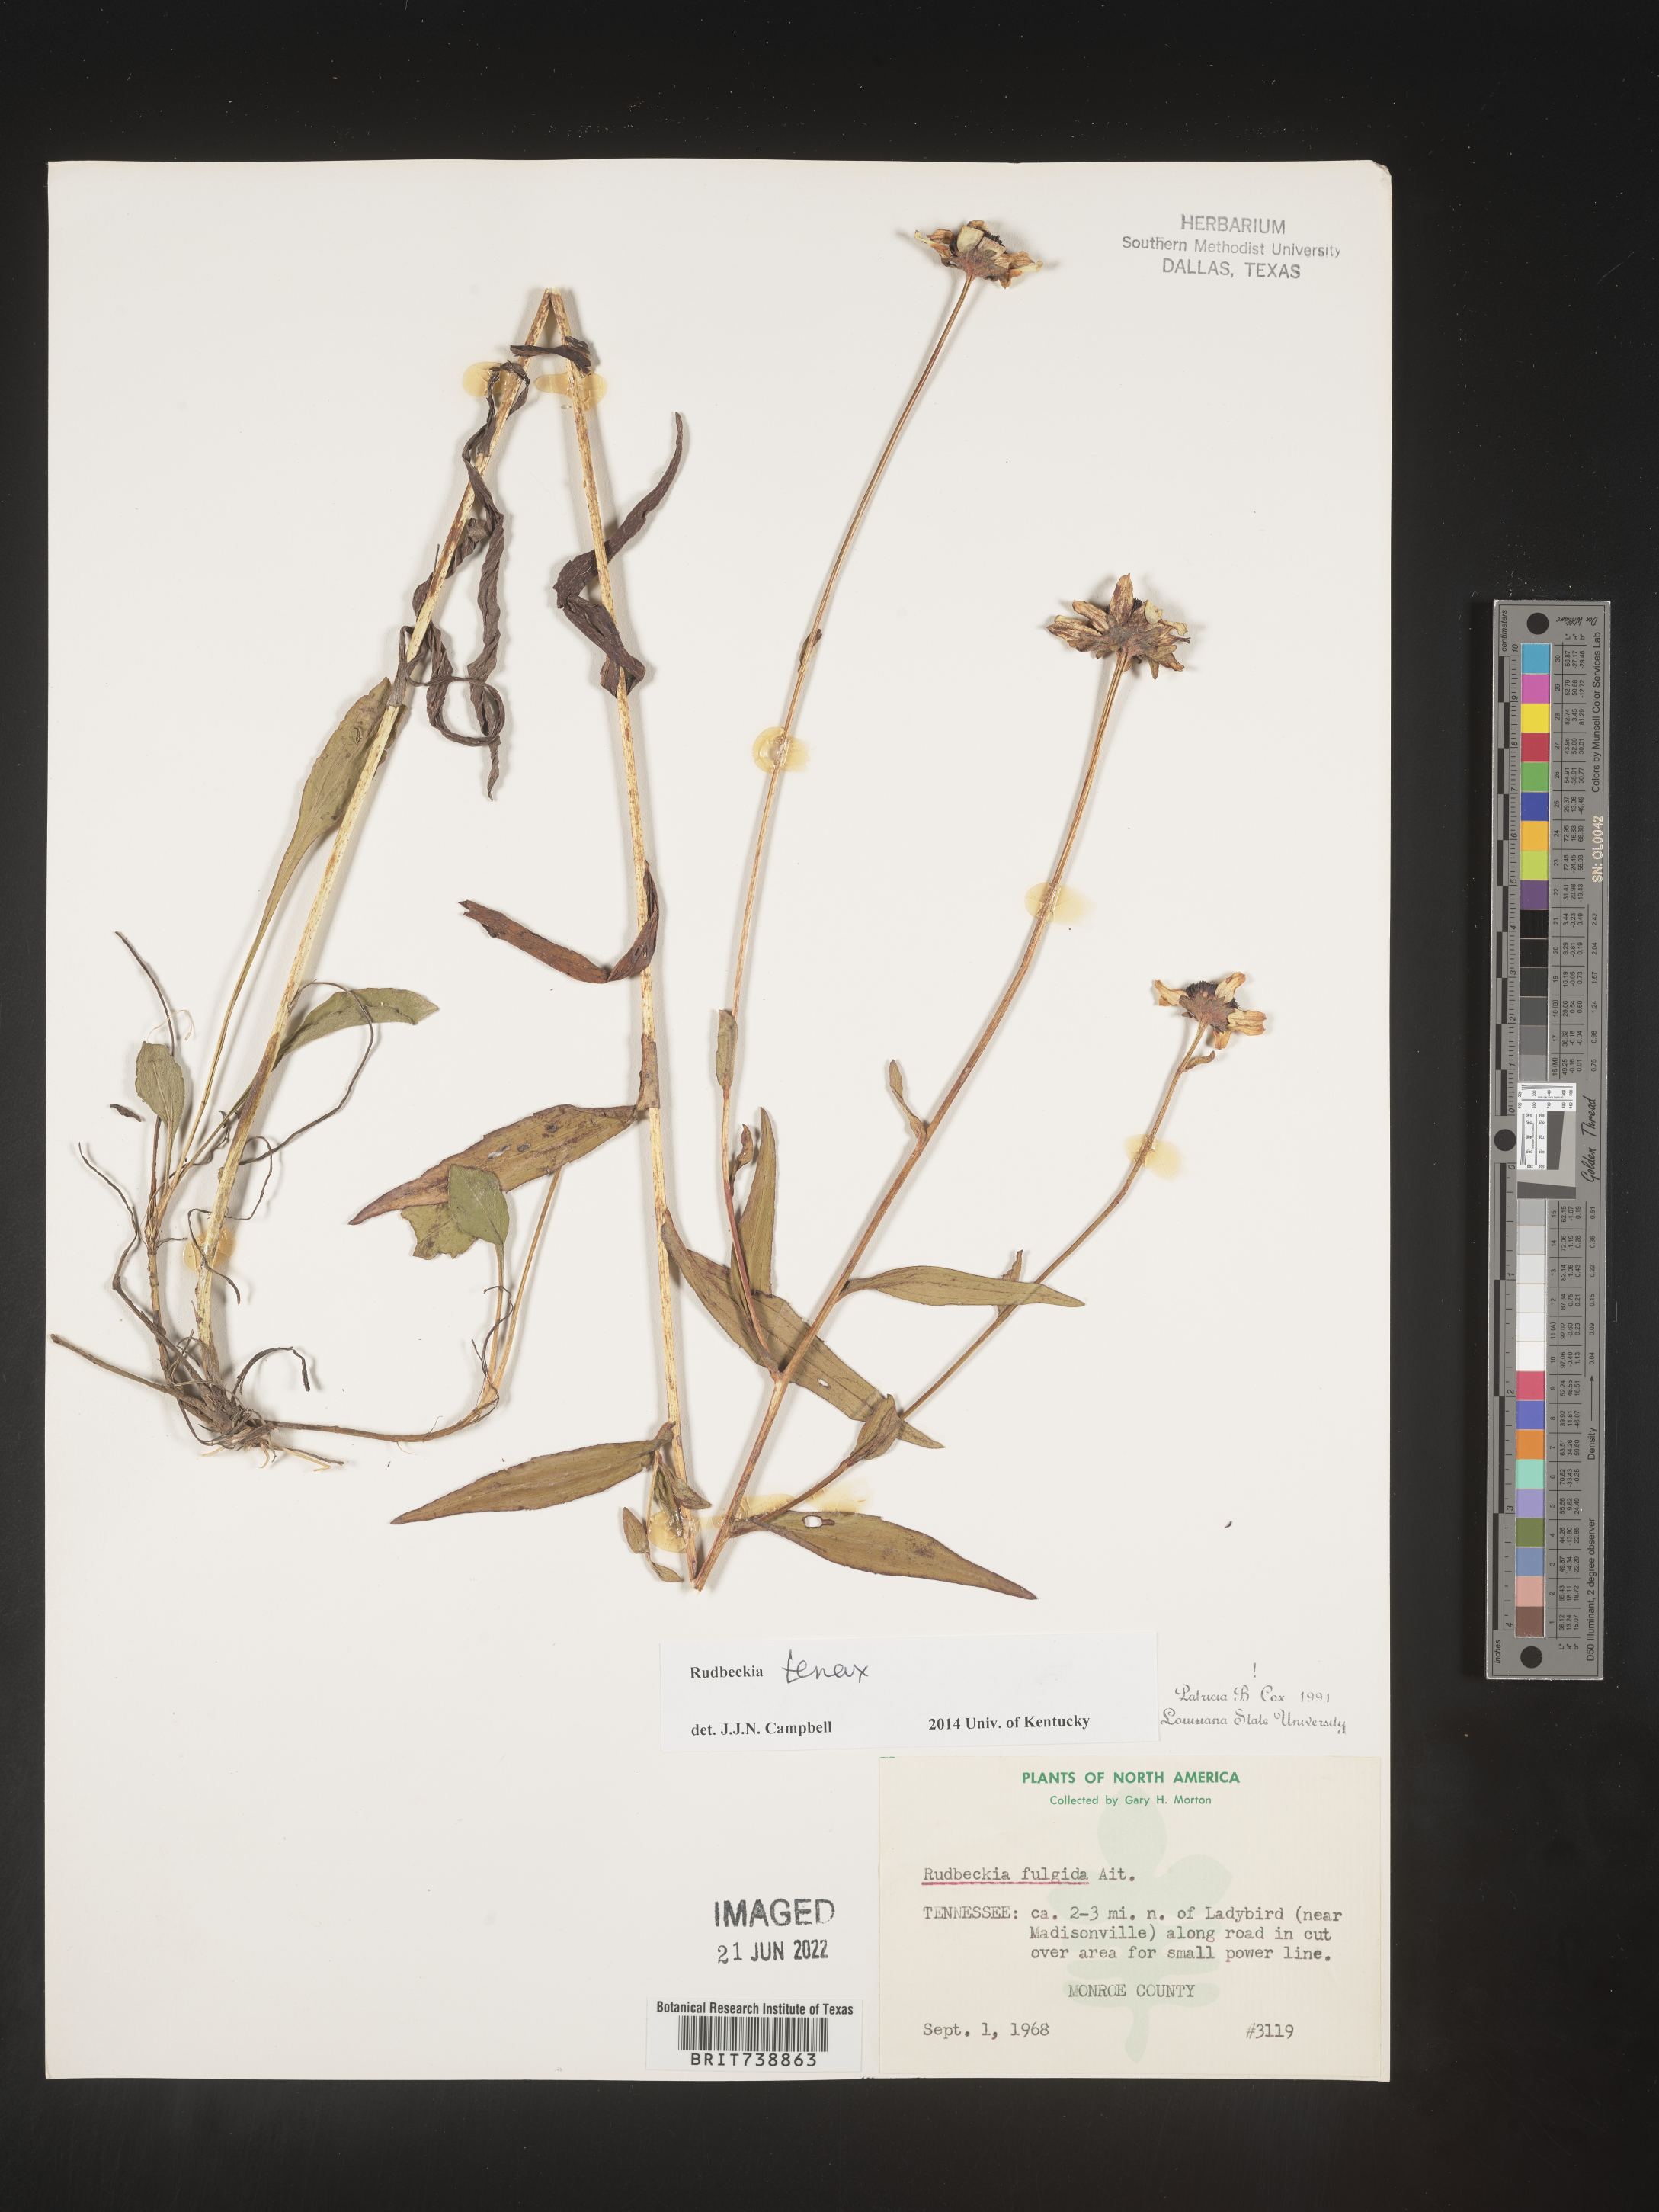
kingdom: Plantae
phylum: Tracheophyta
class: Magnoliopsida
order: Asterales
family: Asteraceae
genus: Rudbeckia
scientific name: Rudbeckia fulgida
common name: Perennial coneflower
